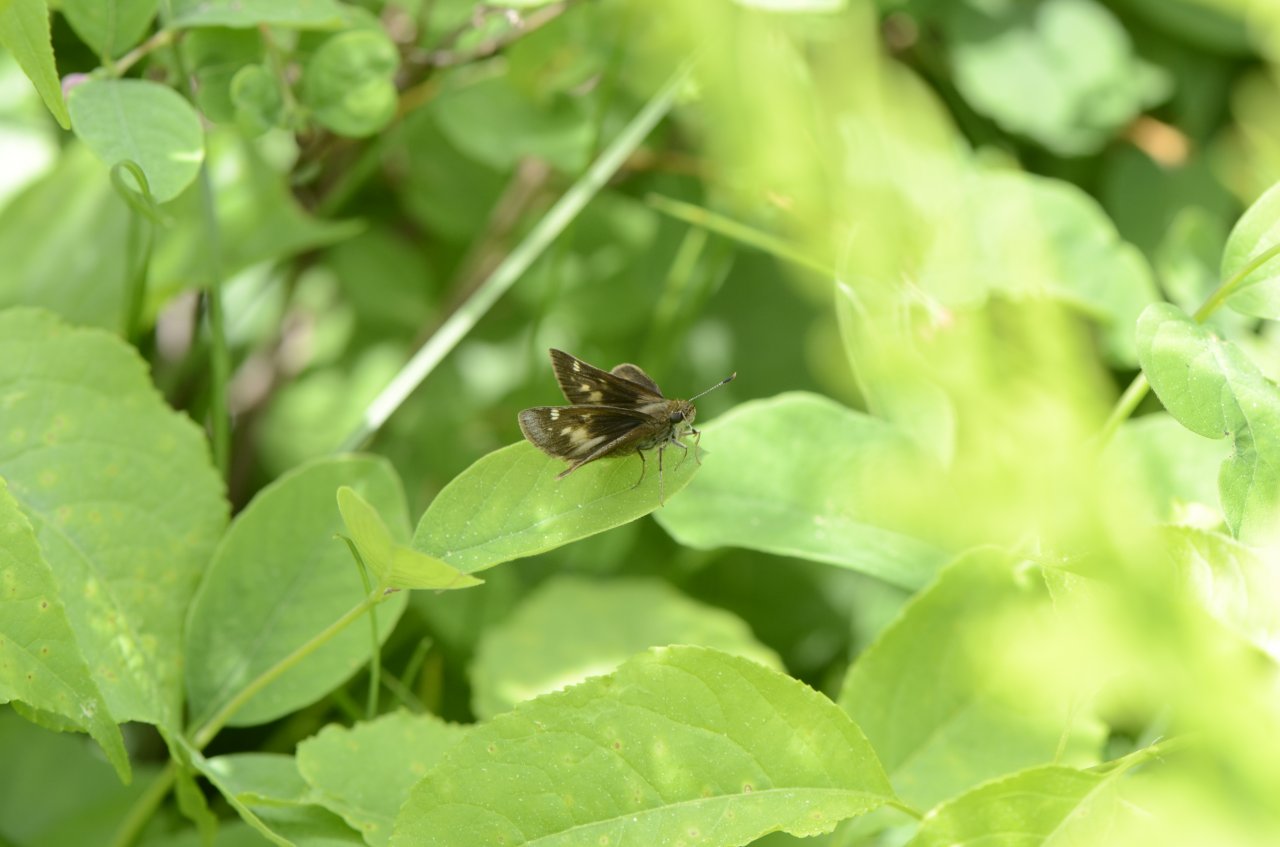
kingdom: Animalia
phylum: Arthropoda
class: Insecta
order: Lepidoptera
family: Lycaenidae
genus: Glaucopsyche
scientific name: Glaucopsyche lygdamus
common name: Silvery Blue
